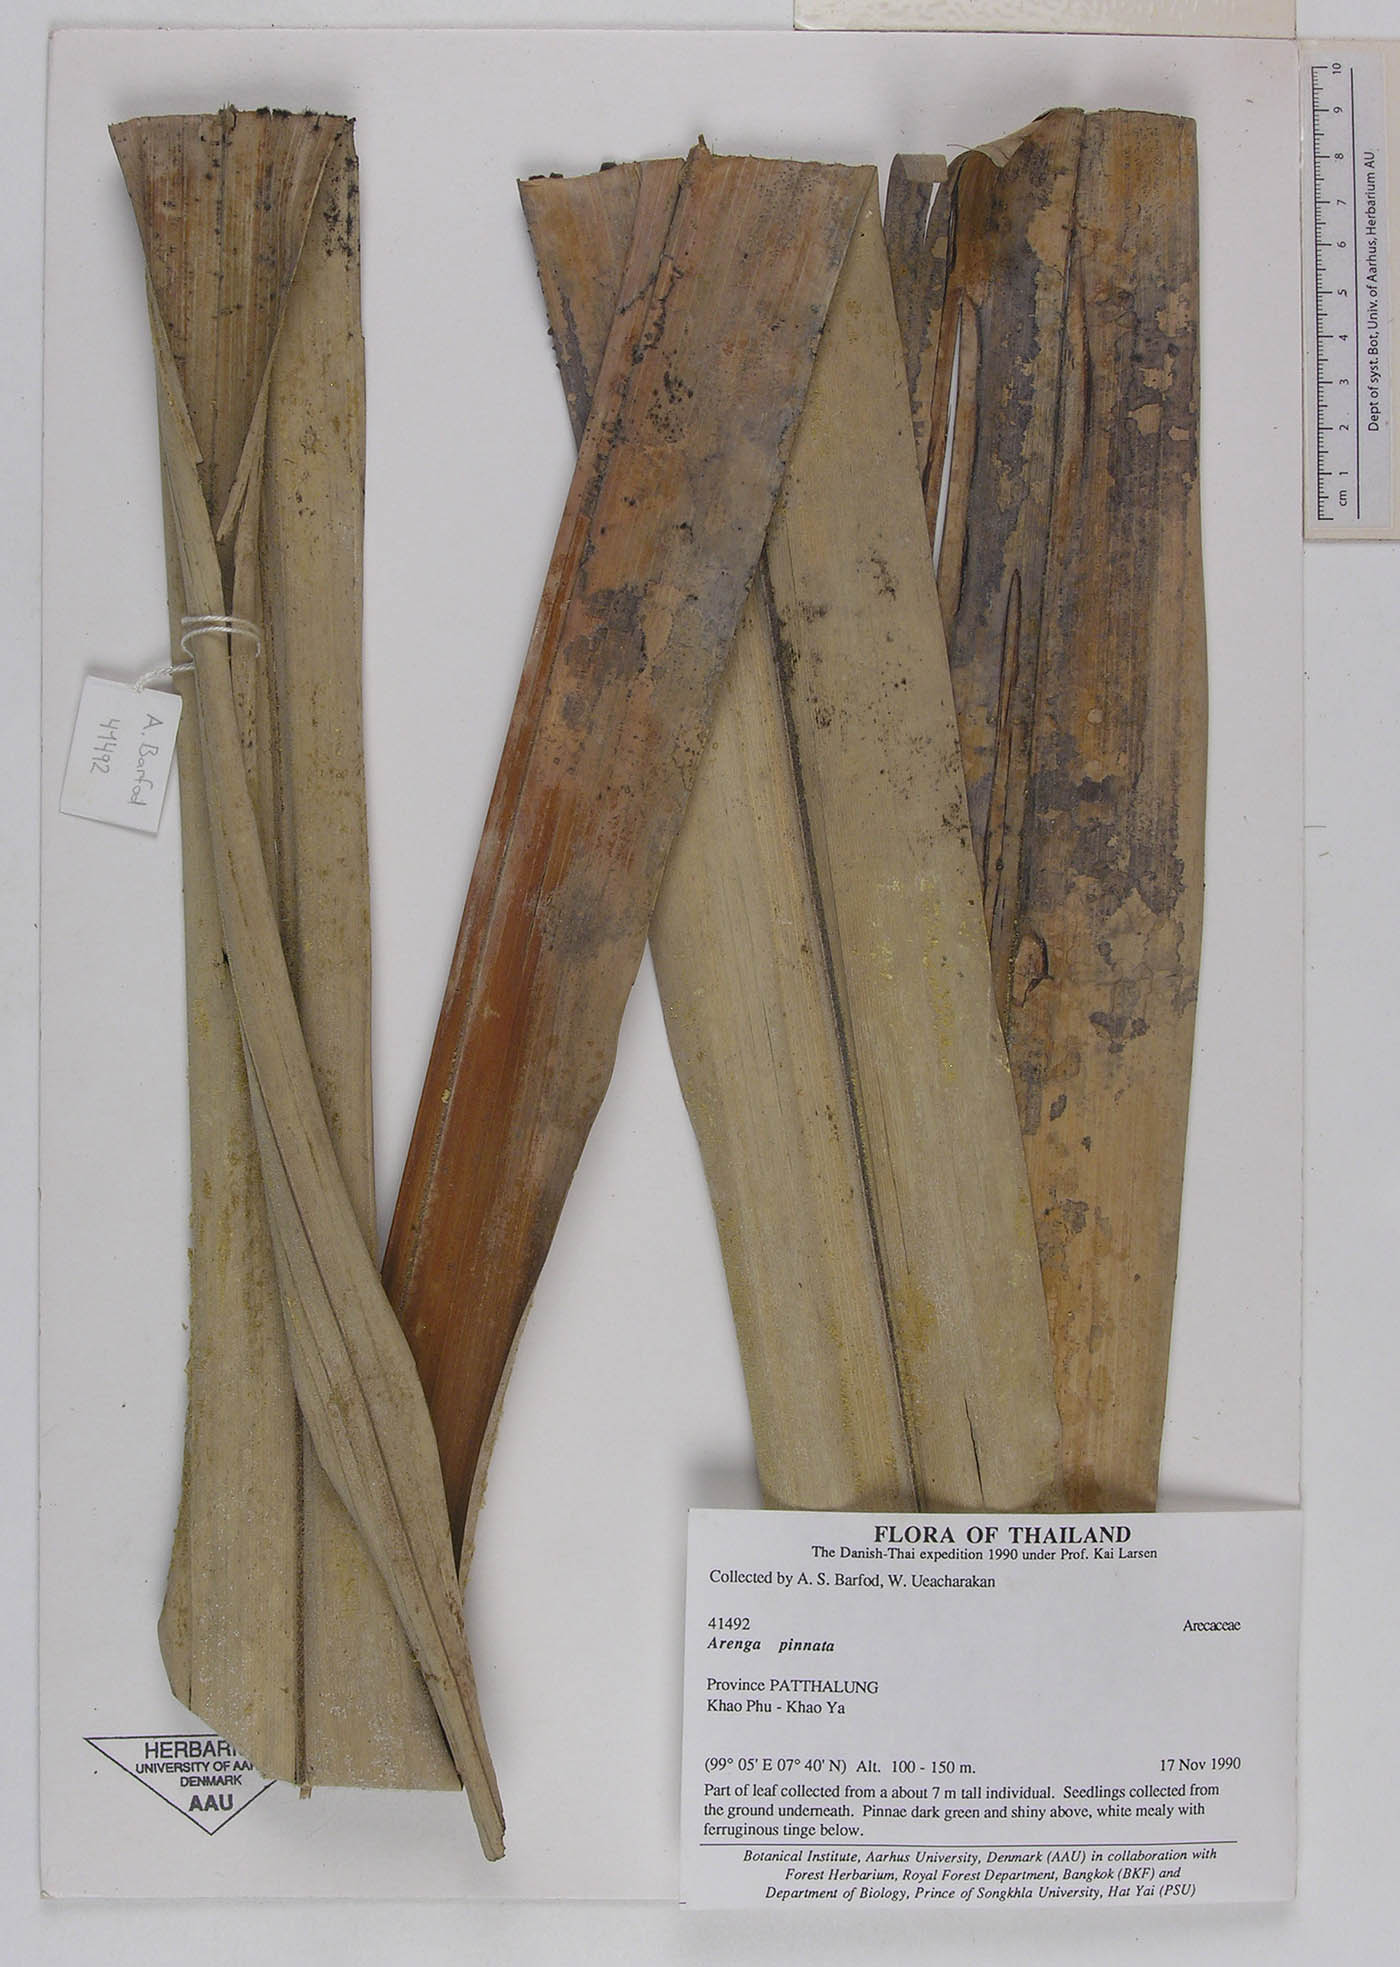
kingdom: Plantae
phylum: Tracheophyta
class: Liliopsida
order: Arecales
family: Arecaceae
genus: Arenga
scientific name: Arenga pinnata
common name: Black-fiber palm
